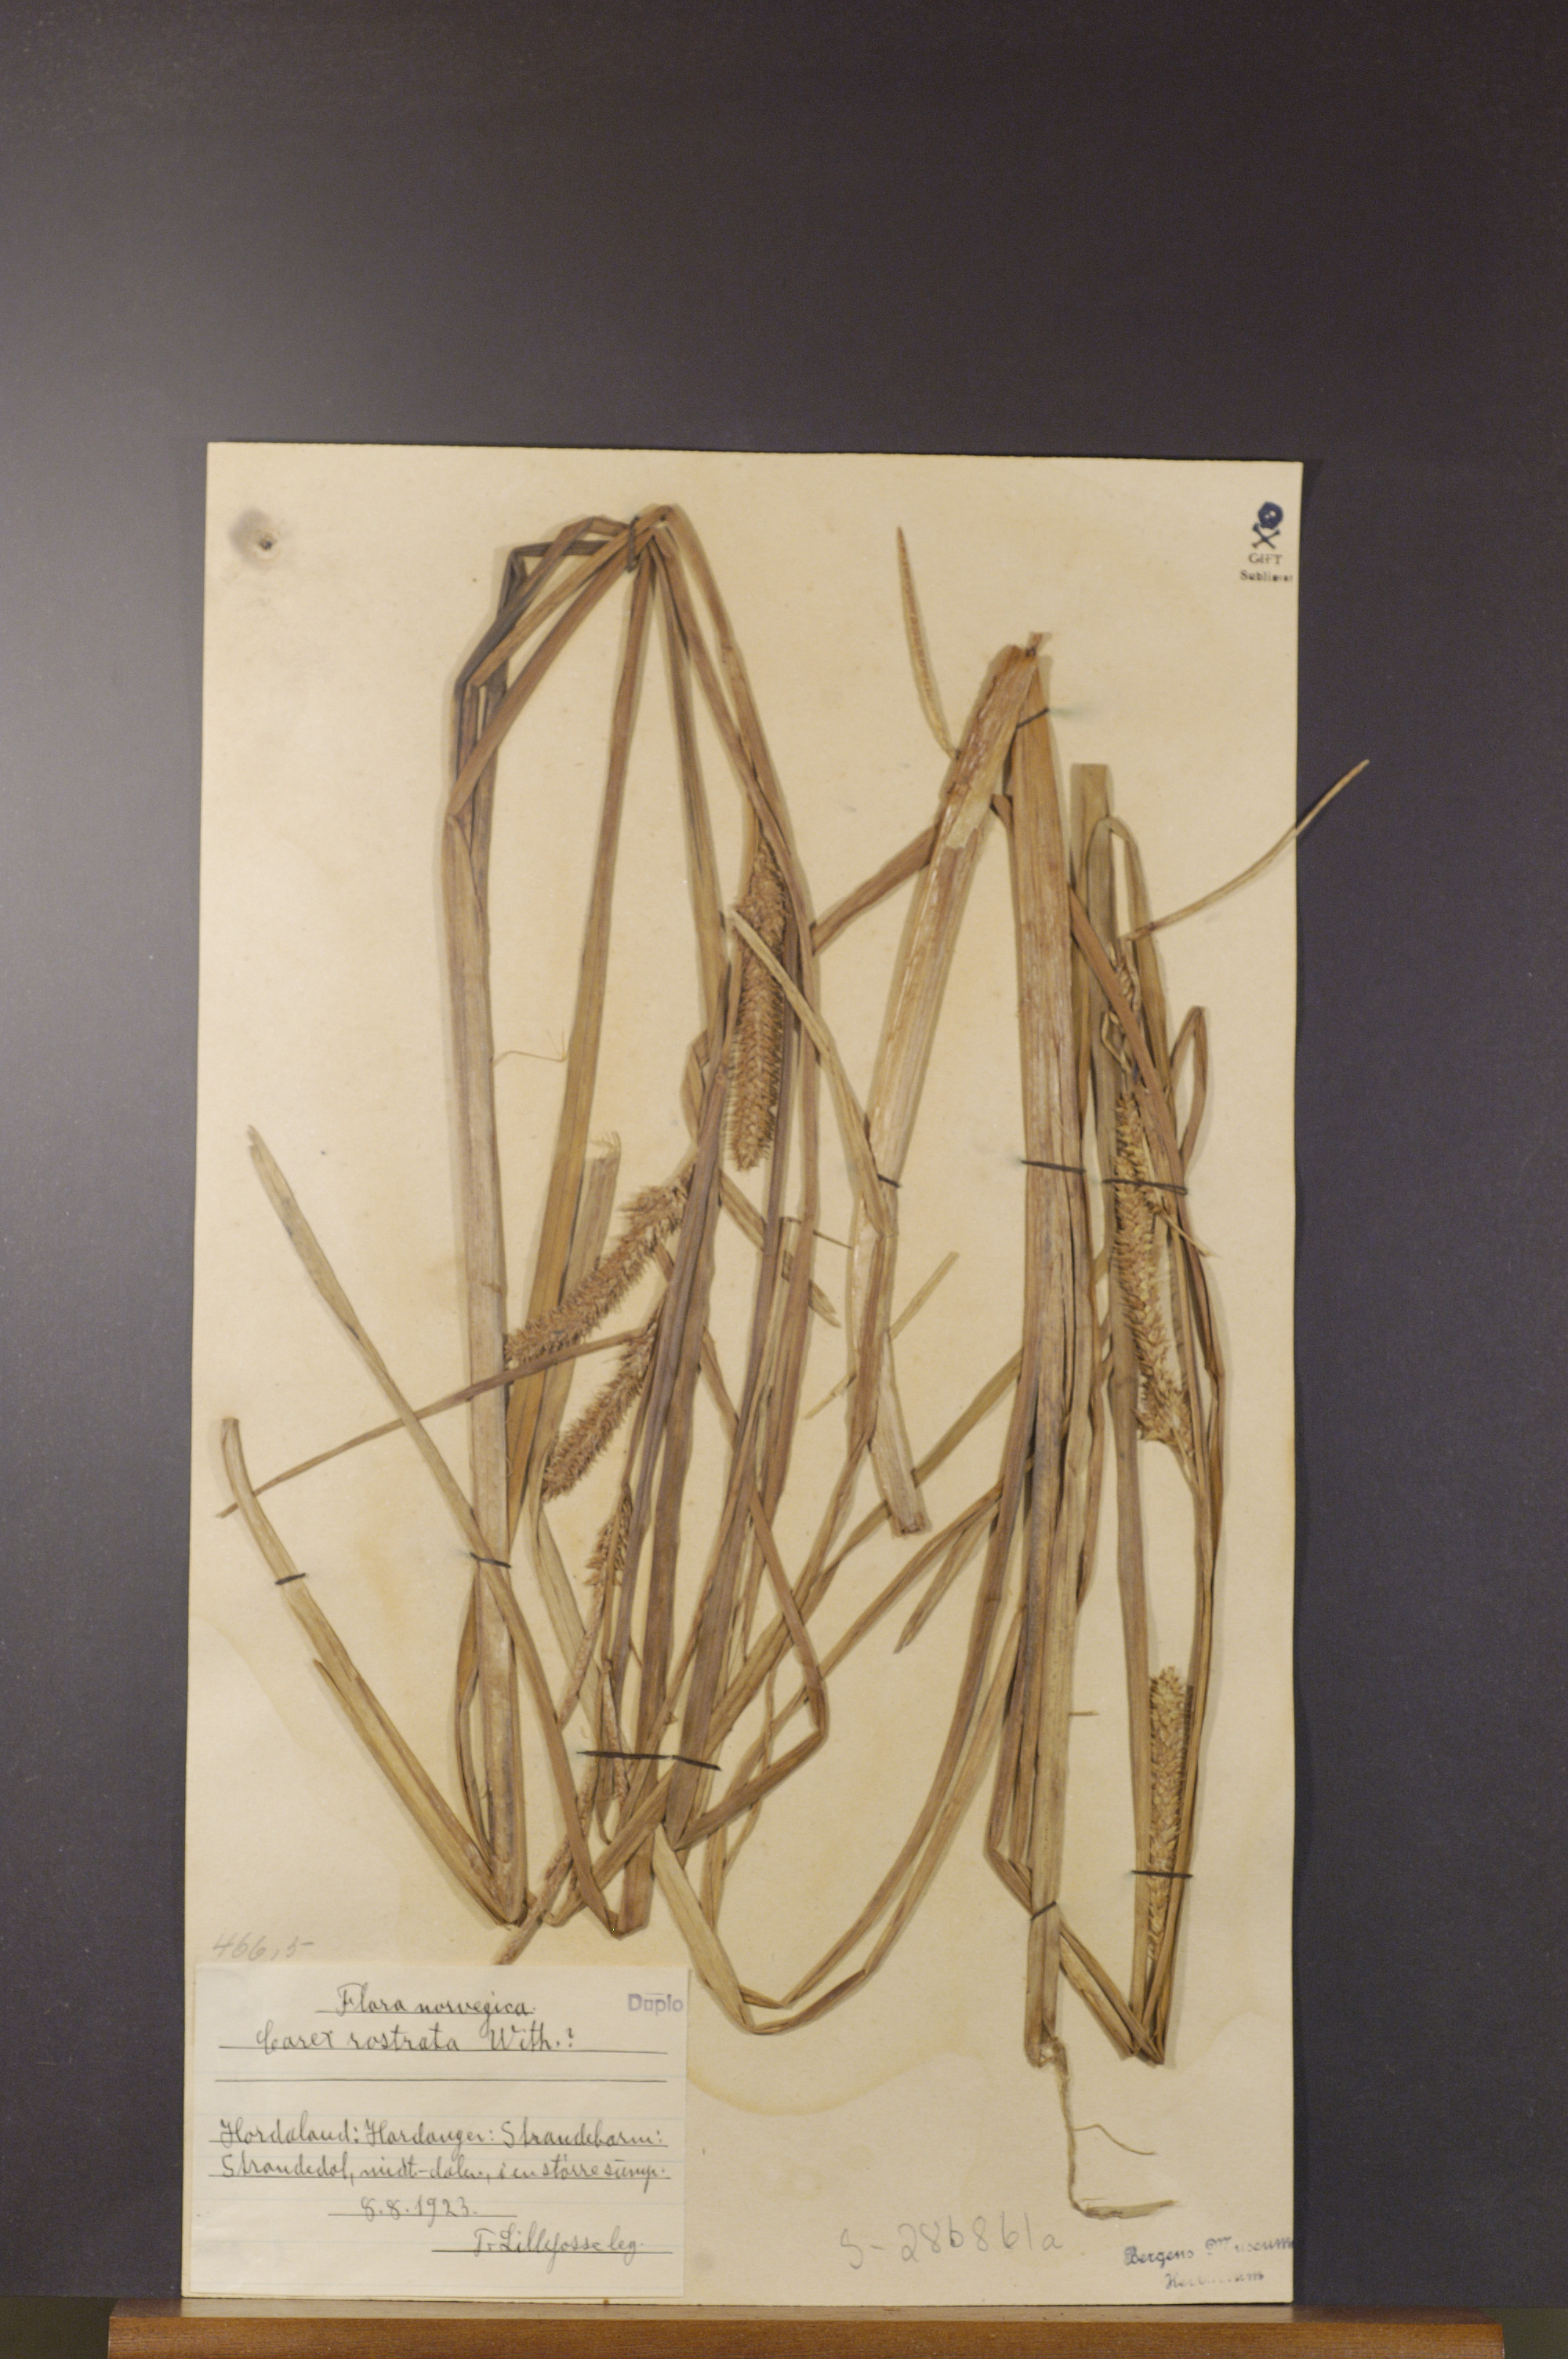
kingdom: Plantae
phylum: Tracheophyta
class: Liliopsida
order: Poales
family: Cyperaceae
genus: Carex
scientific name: Carex rostrata
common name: Bottle sedge
